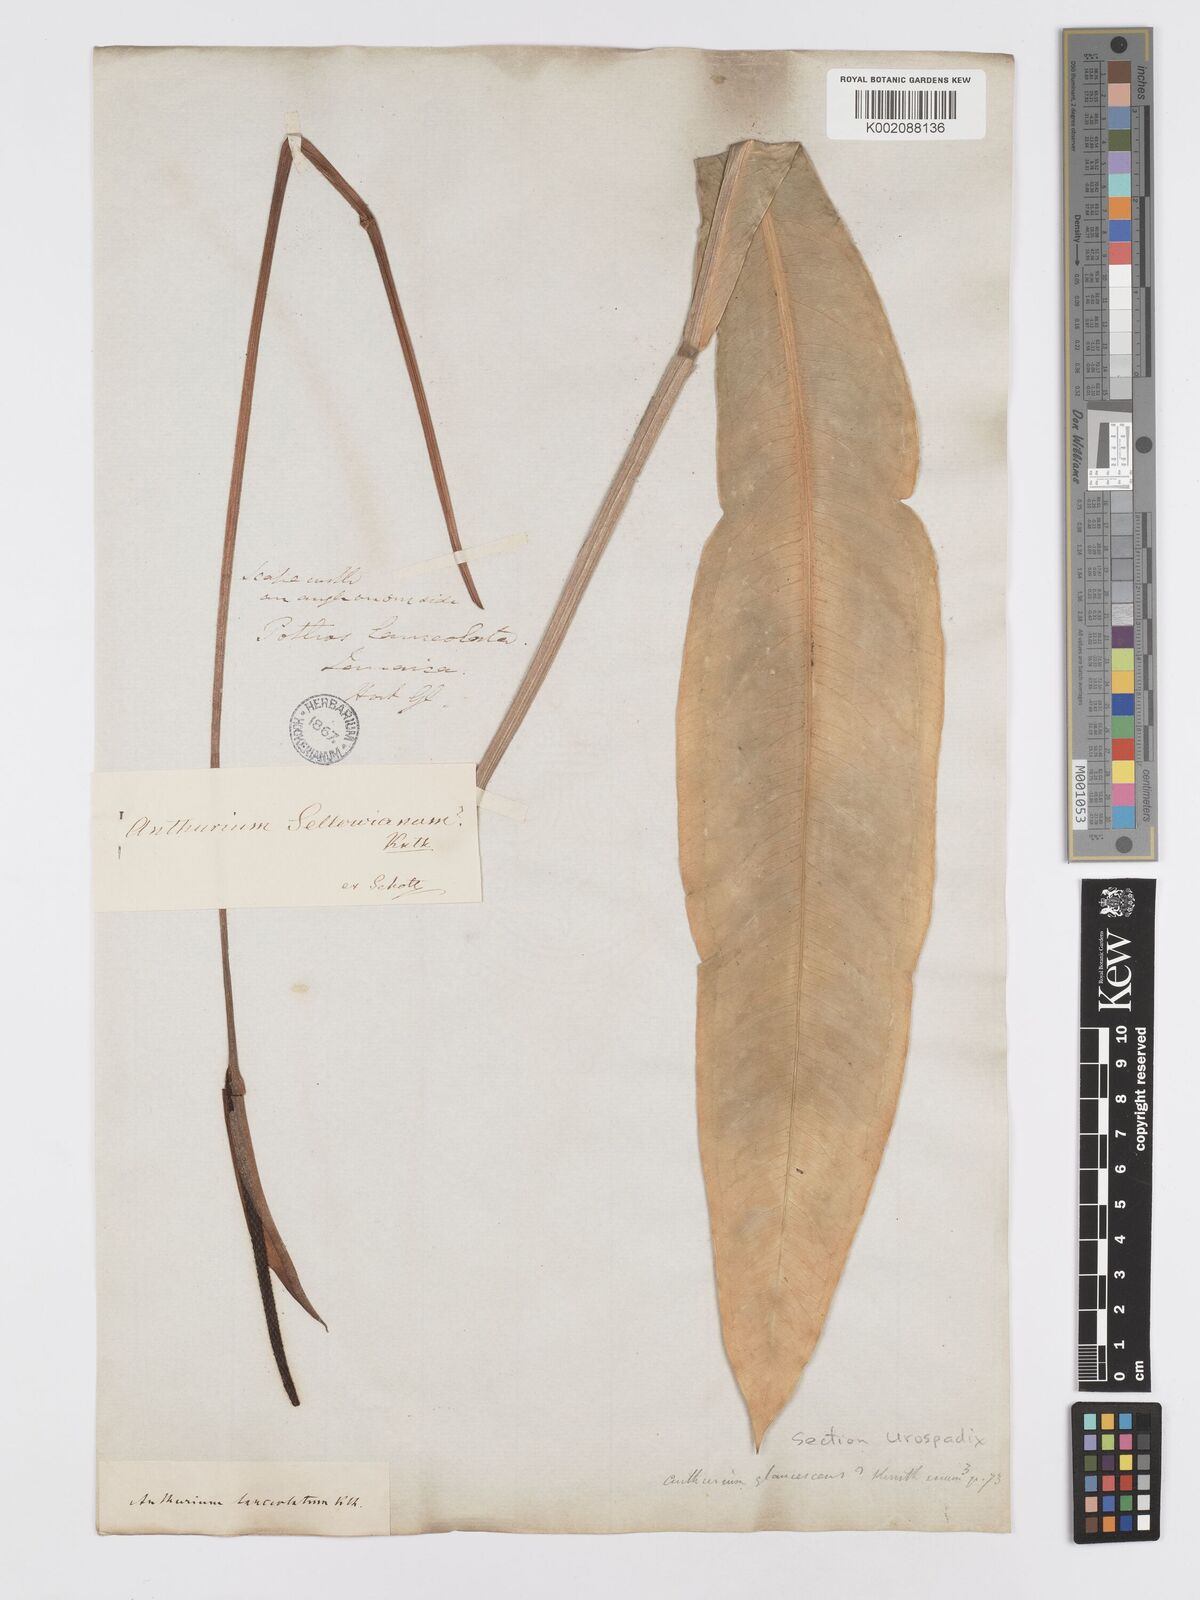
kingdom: Plantae
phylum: Tracheophyta
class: Liliopsida
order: Alismatales
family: Araceae
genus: Anthurium
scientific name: Anthurium
